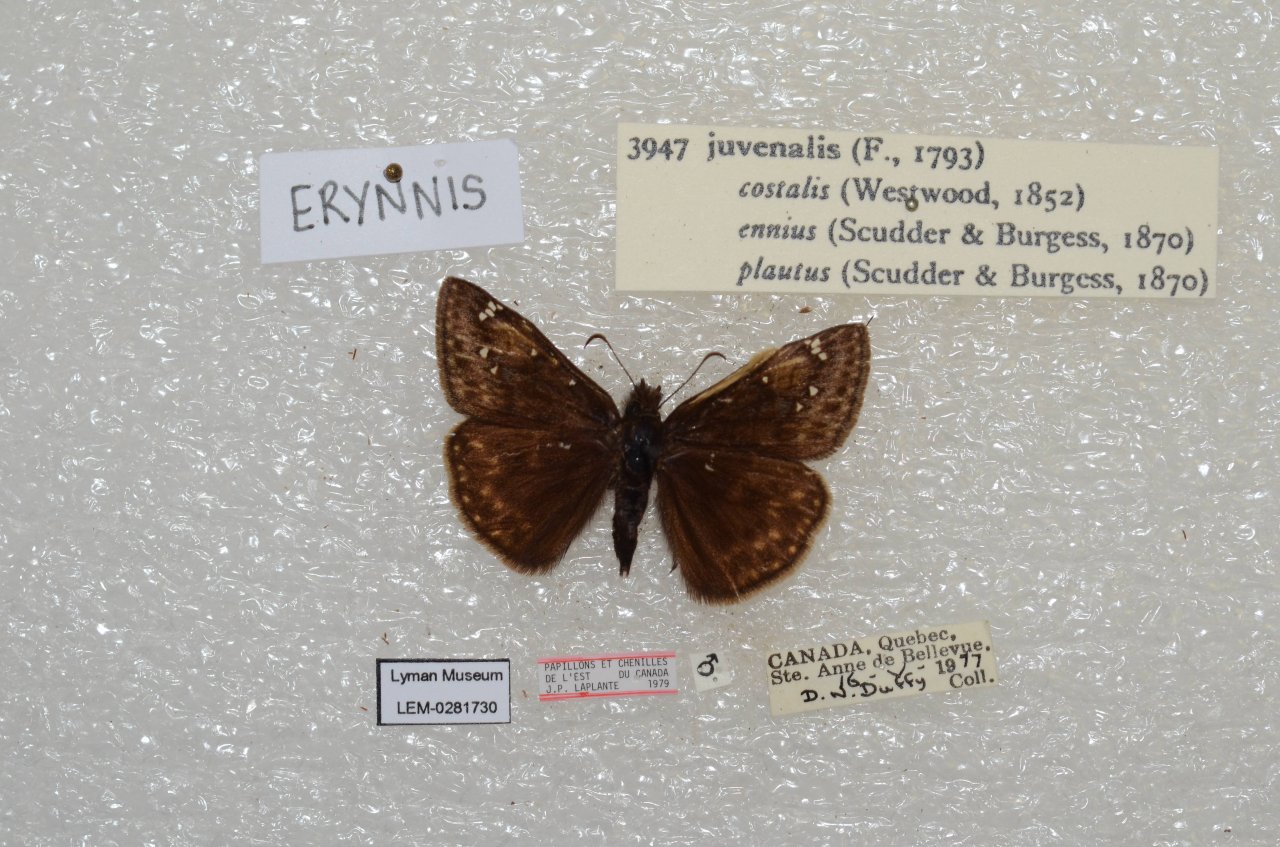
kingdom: Animalia
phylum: Arthropoda
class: Insecta
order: Lepidoptera
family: Hesperiidae
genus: Gesta
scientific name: Gesta
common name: Juvenal's Duskywing
